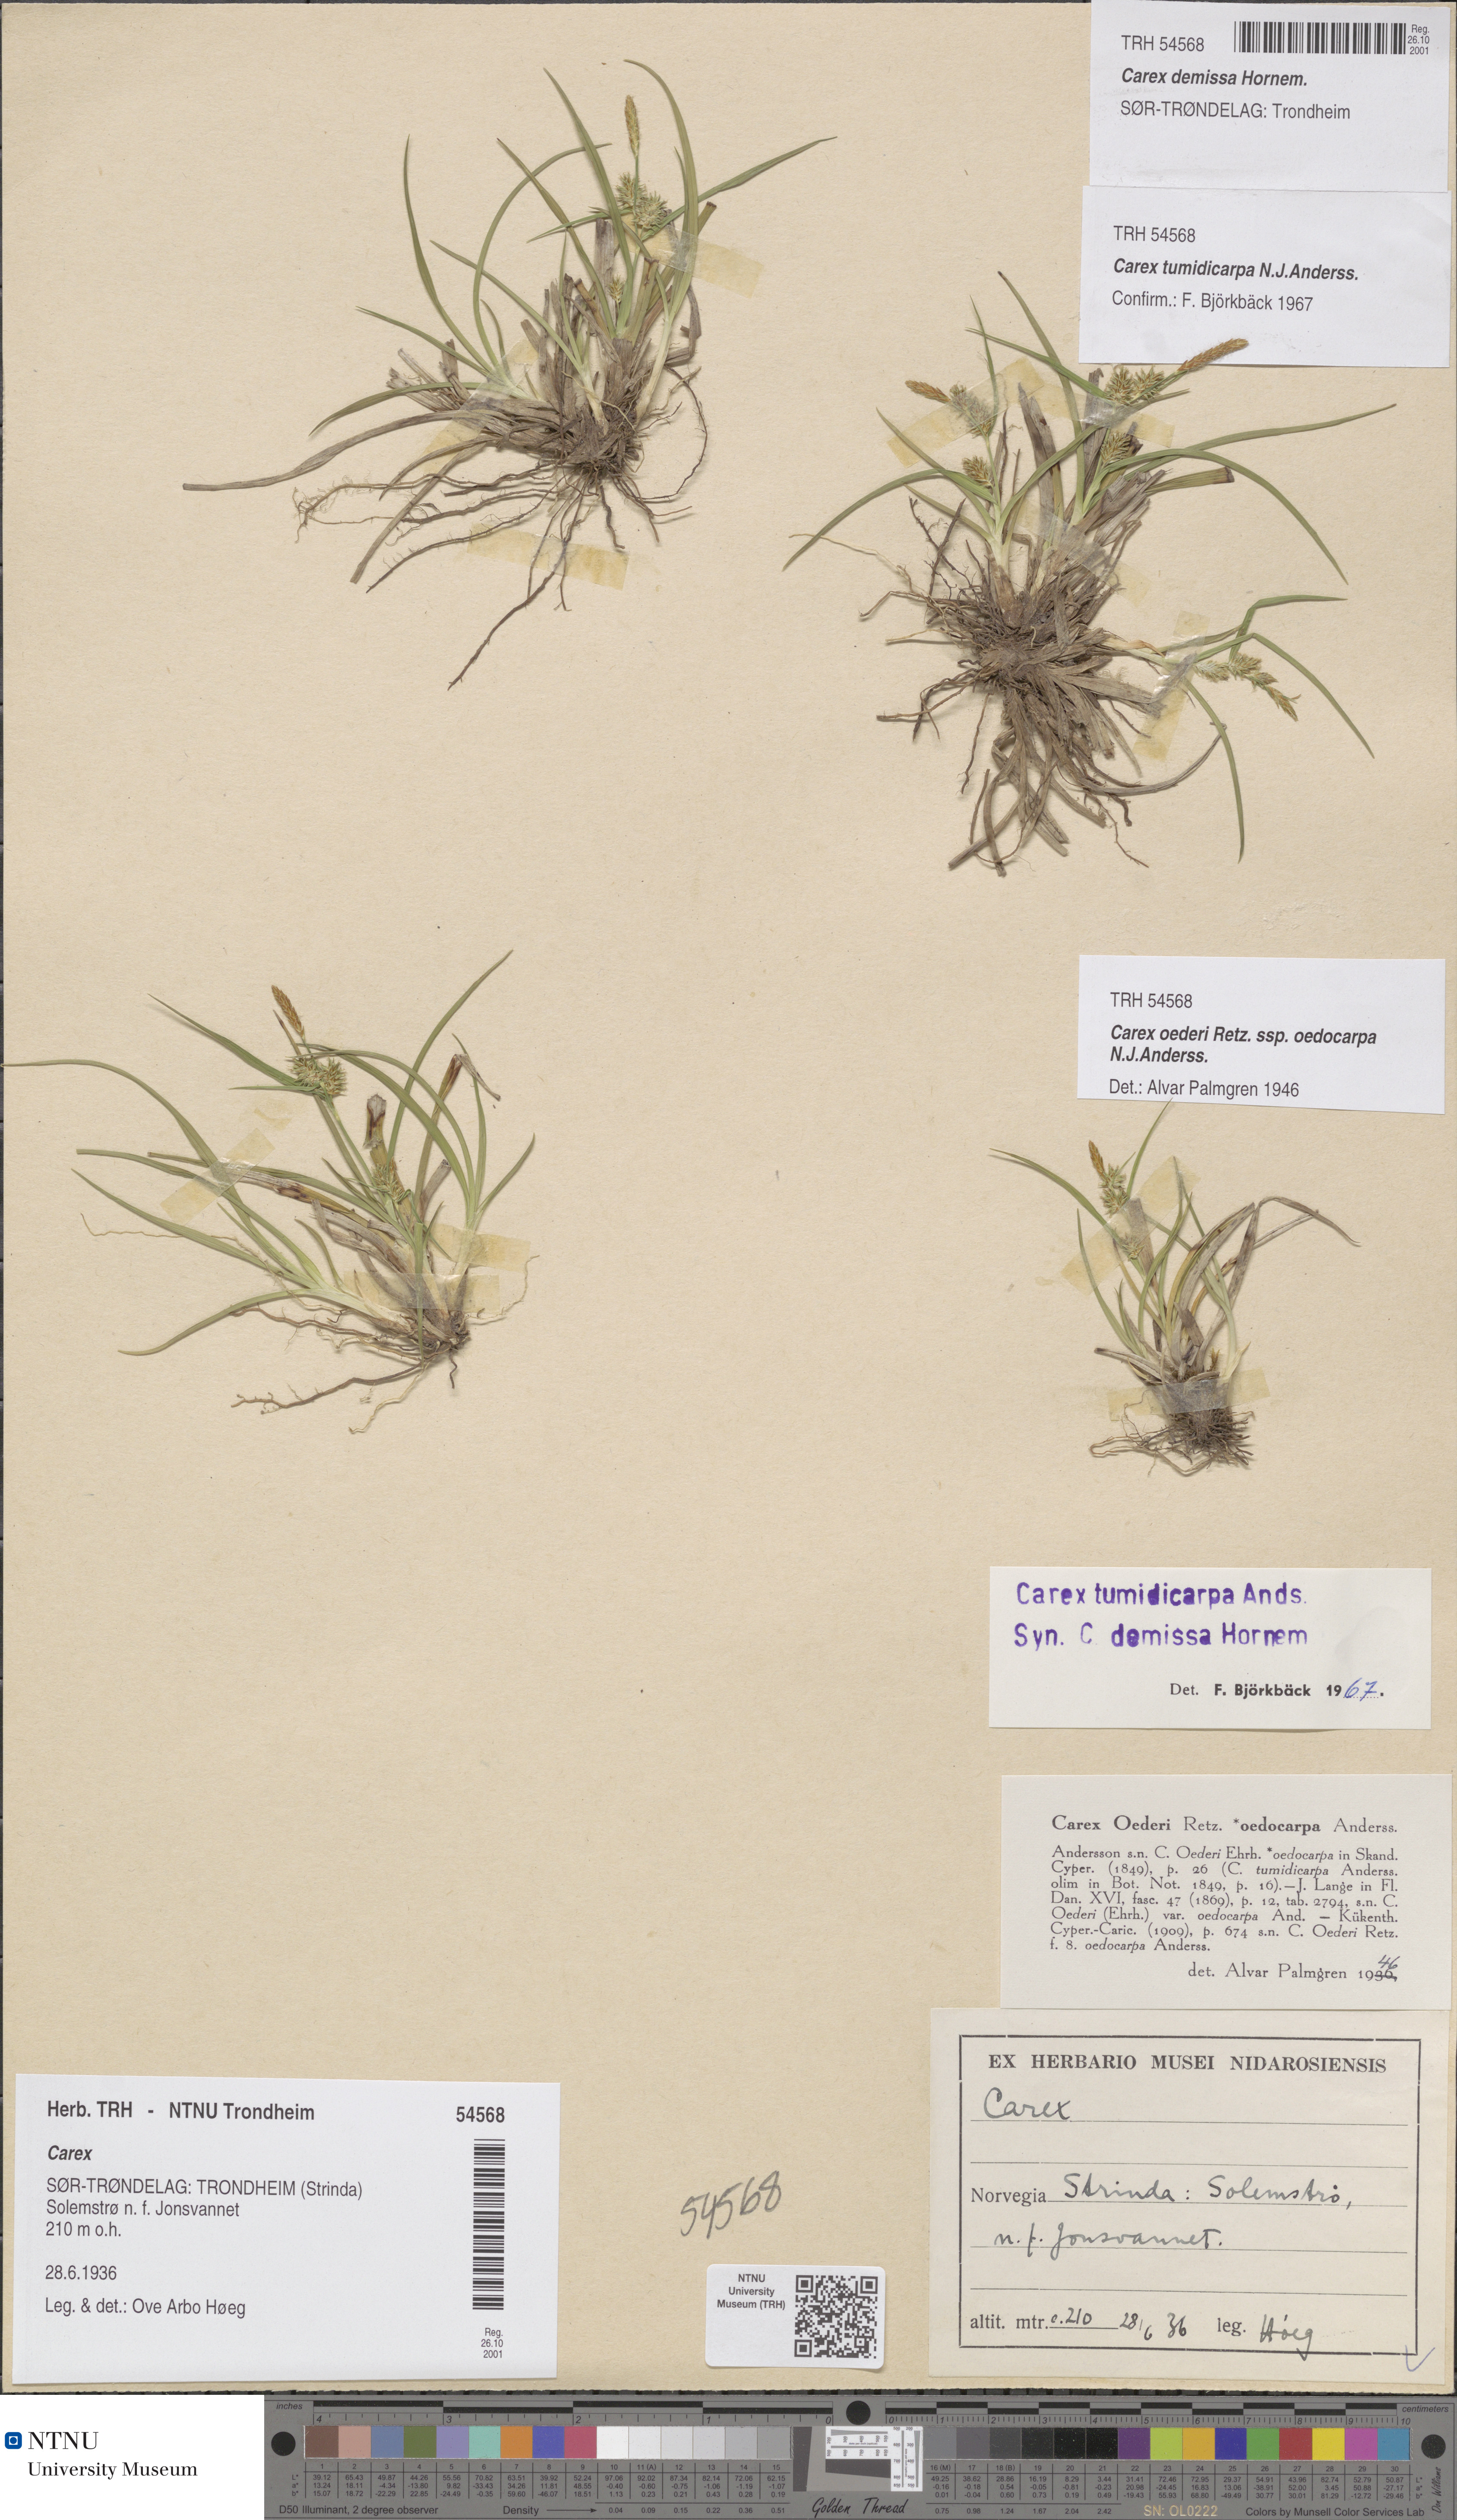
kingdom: Plantae
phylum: Tracheophyta
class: Liliopsida
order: Poales
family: Cyperaceae
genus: Carex
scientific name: Carex demissa
